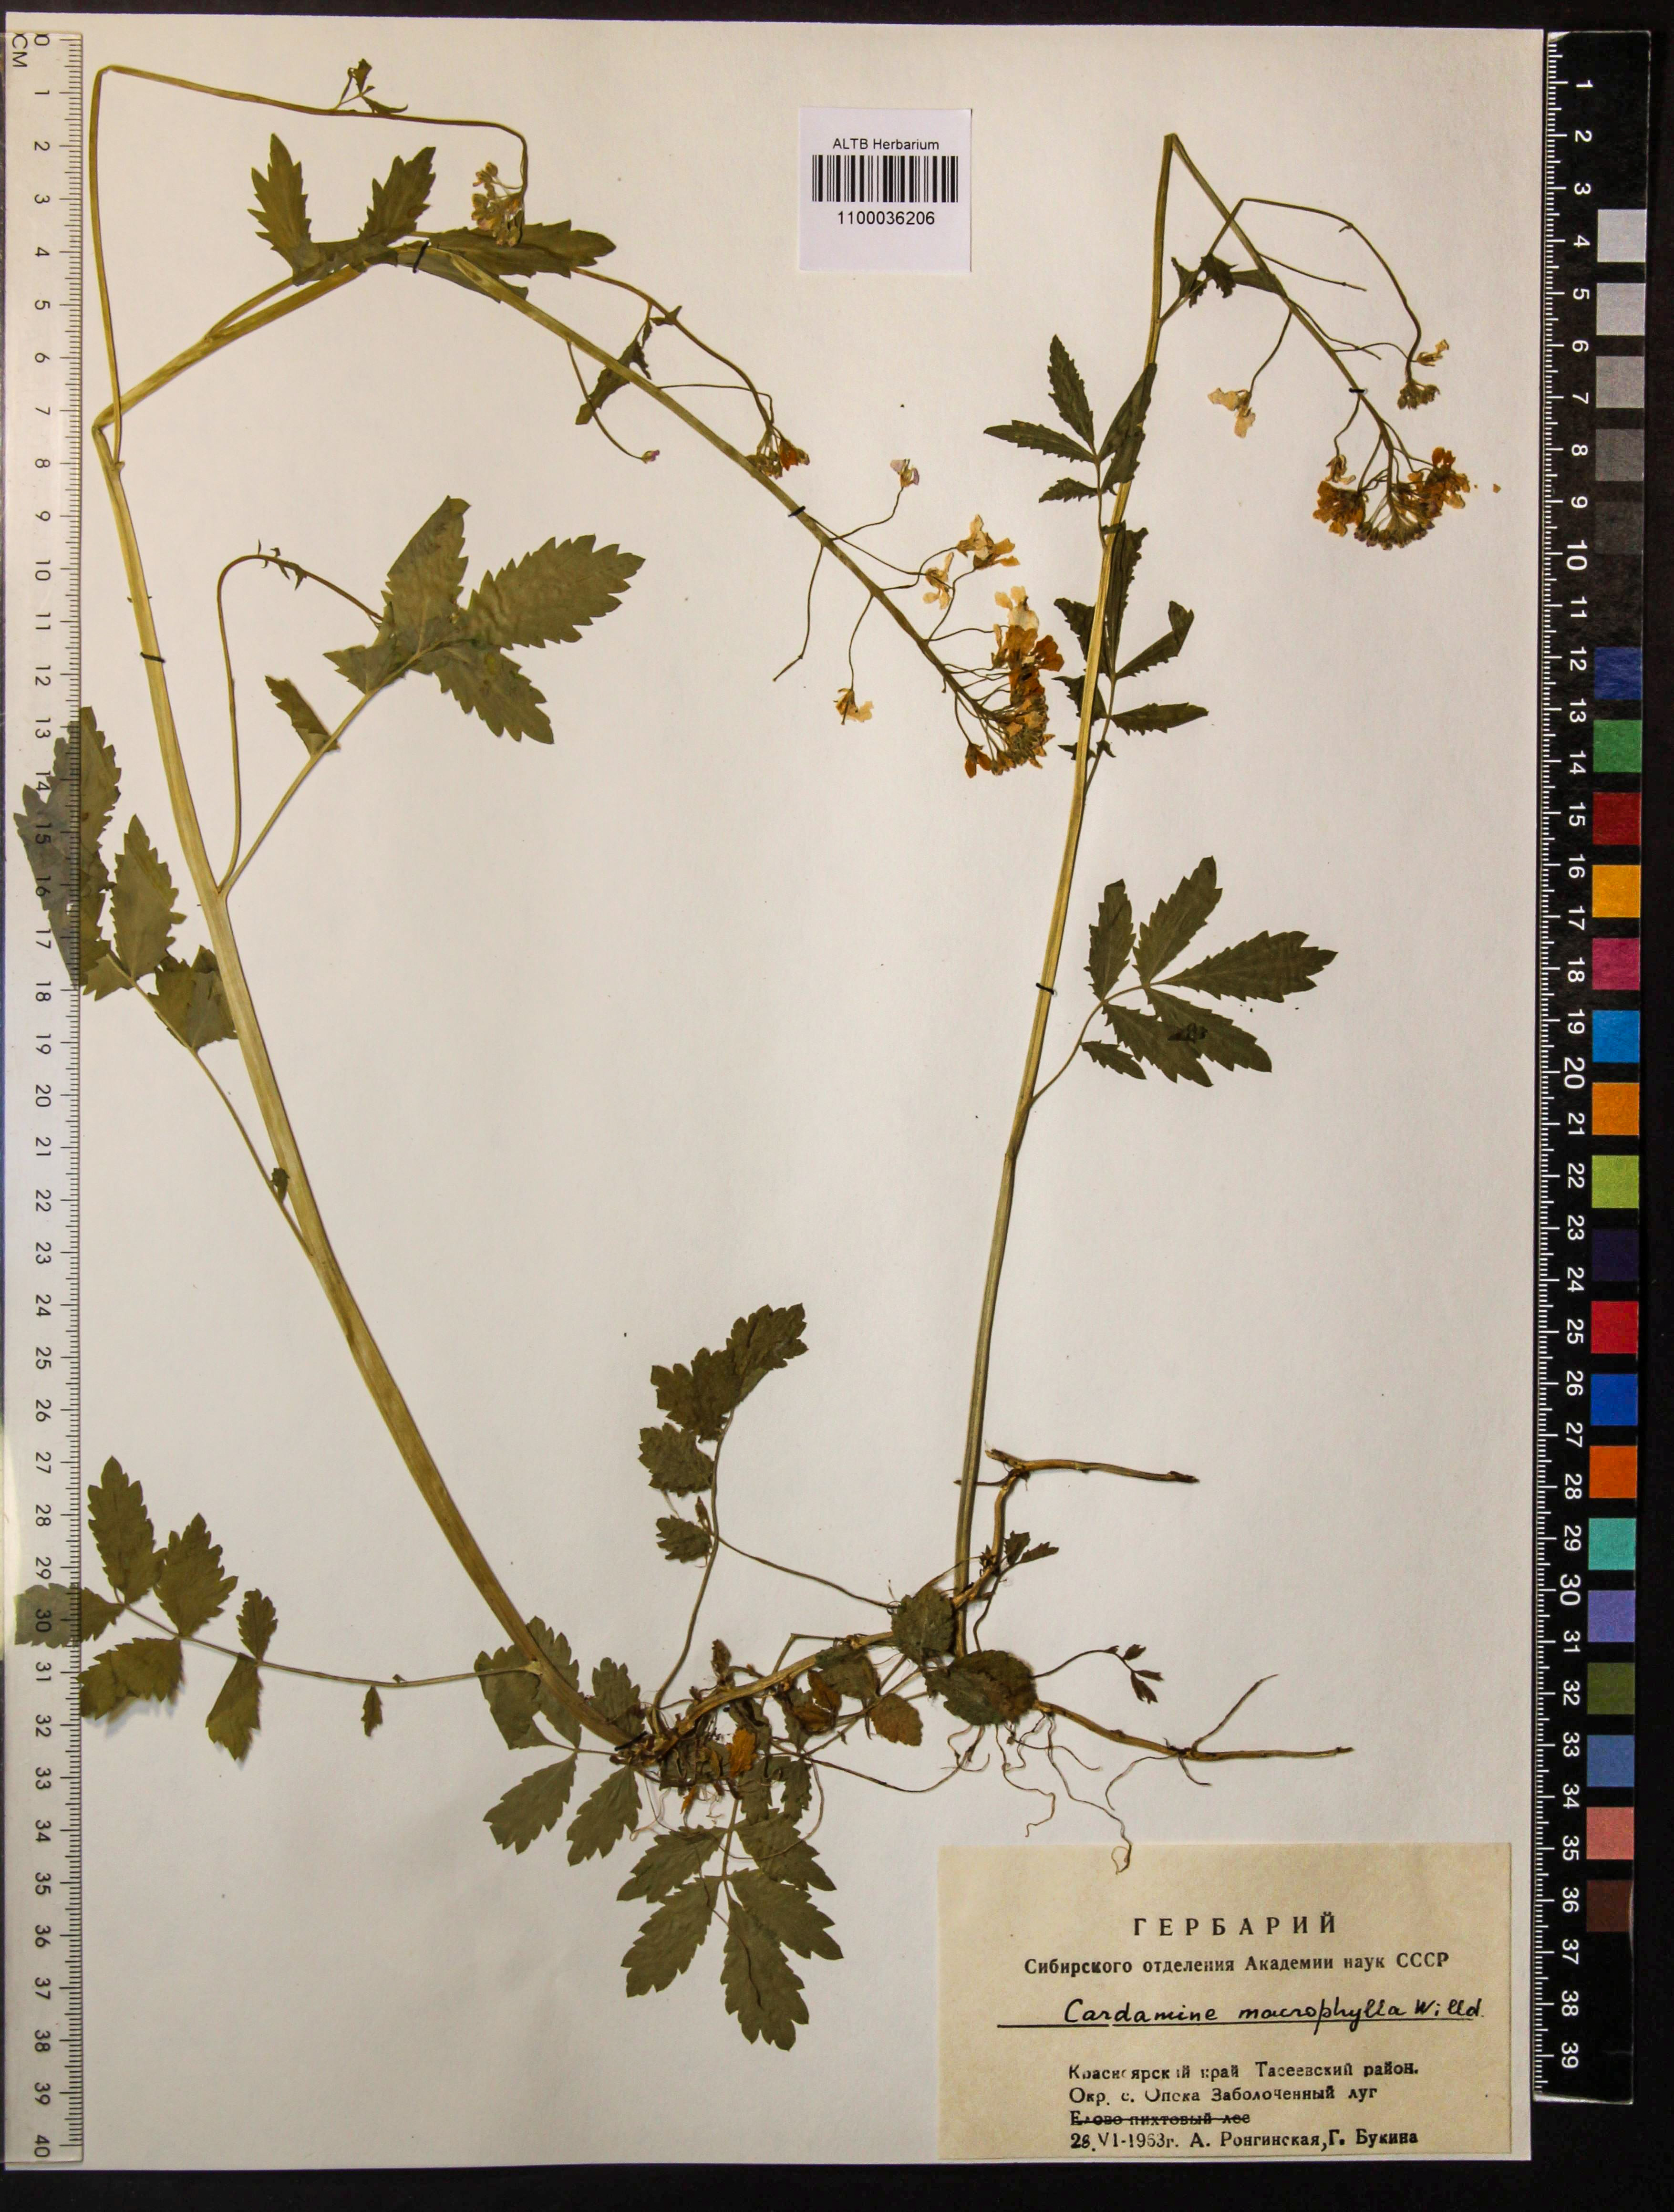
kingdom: Plantae
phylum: Tracheophyta
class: Magnoliopsida
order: Brassicales
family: Brassicaceae
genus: Cardamine
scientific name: Cardamine macrophylla
